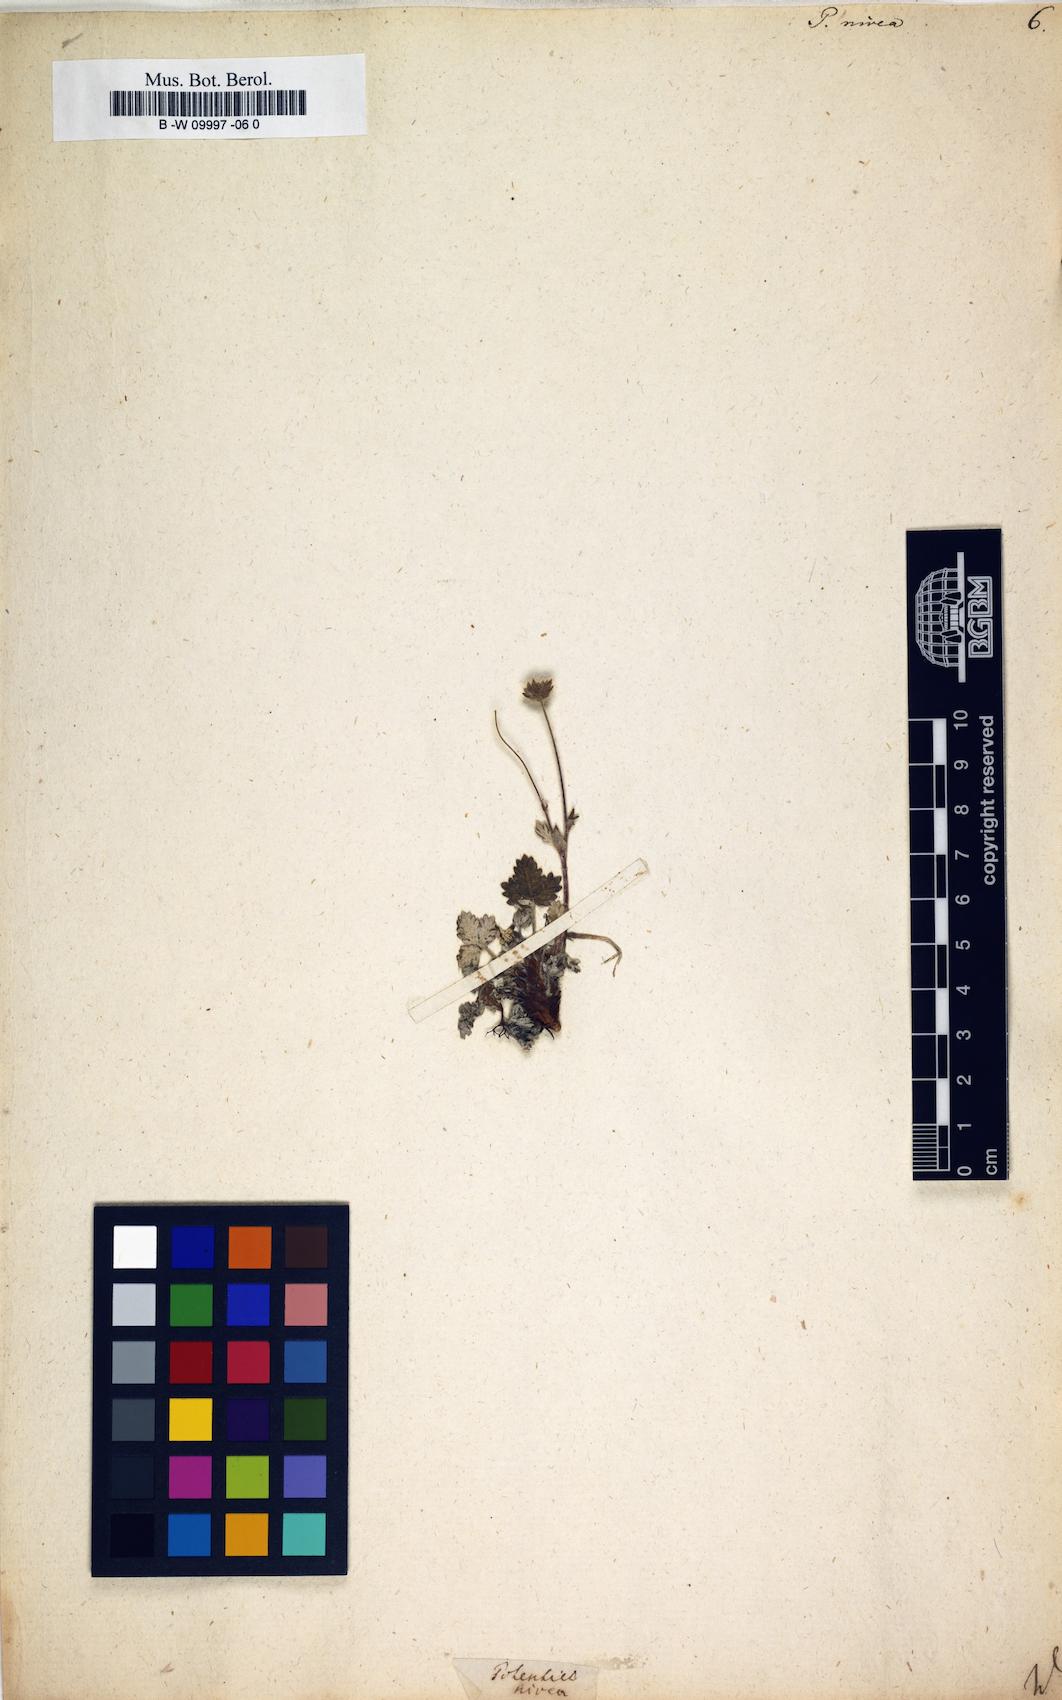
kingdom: Plantae
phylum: Tracheophyta
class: Magnoliopsida
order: Rosales
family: Rosaceae
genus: Potentilla
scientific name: Potentilla nivea
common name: Snow cinquefoil
